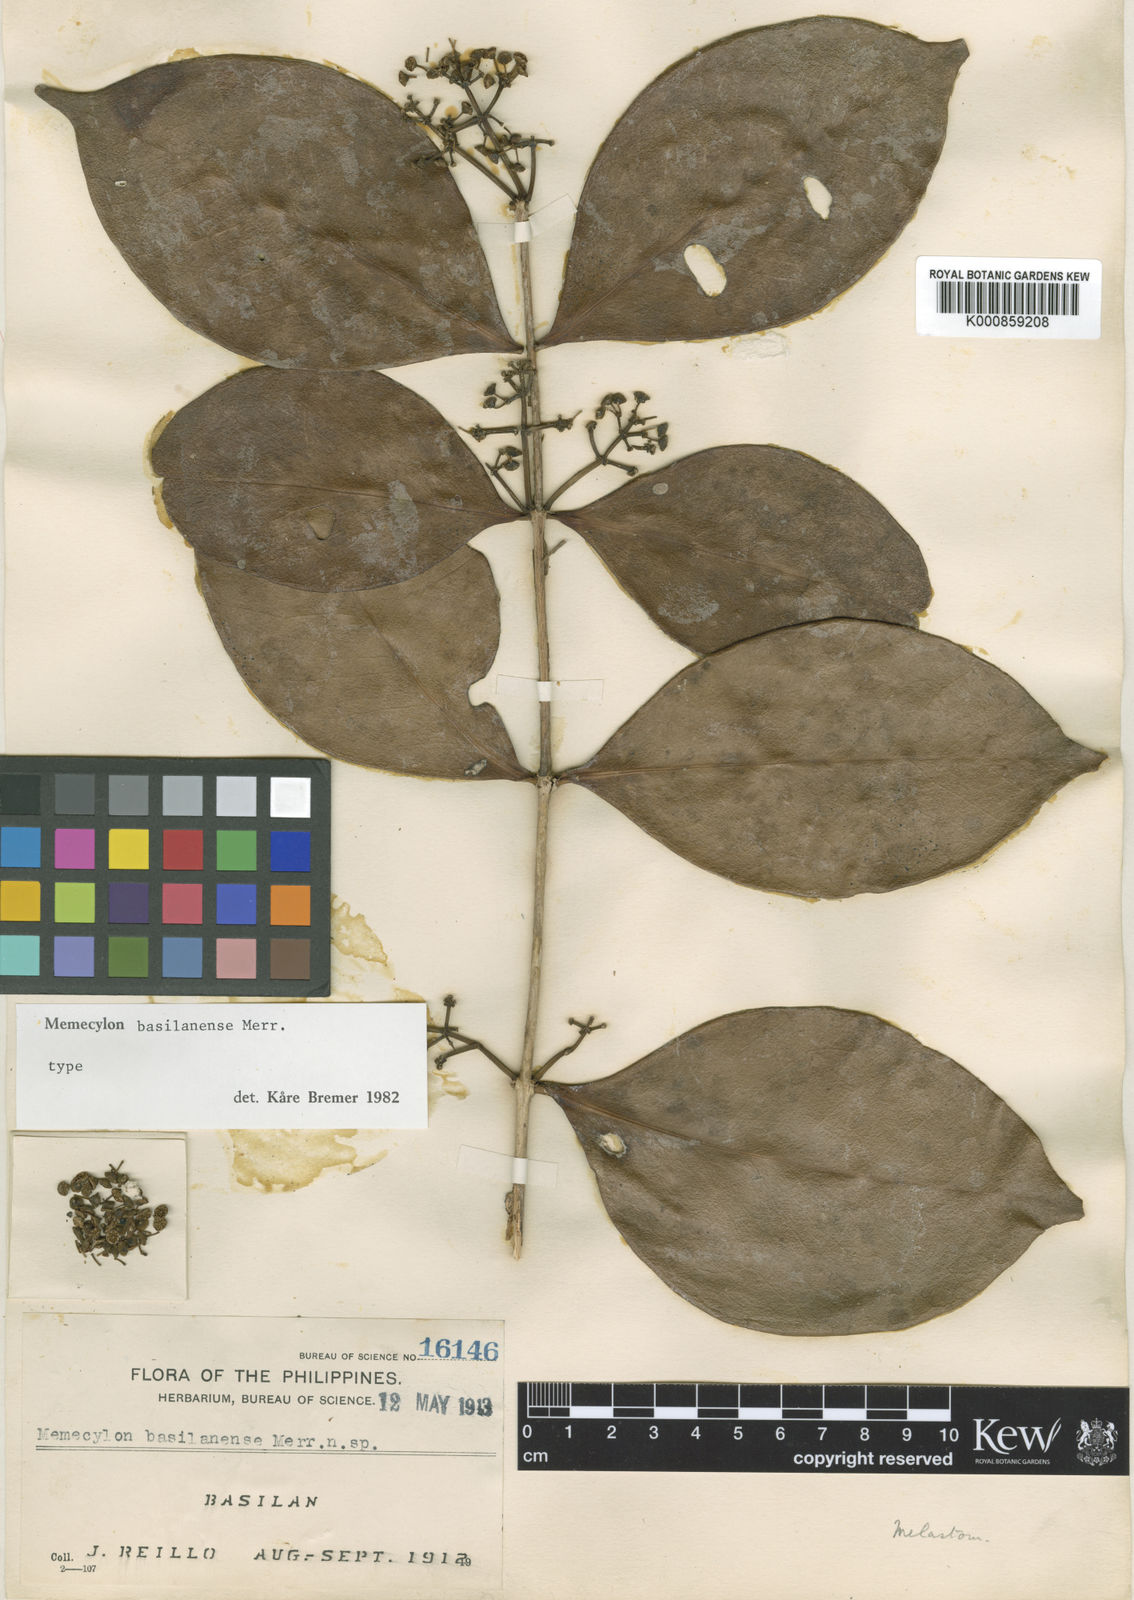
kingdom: Plantae
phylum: Tracheophyta
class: Magnoliopsida
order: Myrtales
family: Melastomataceae
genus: Memecylon
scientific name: Memecylon basilanense
